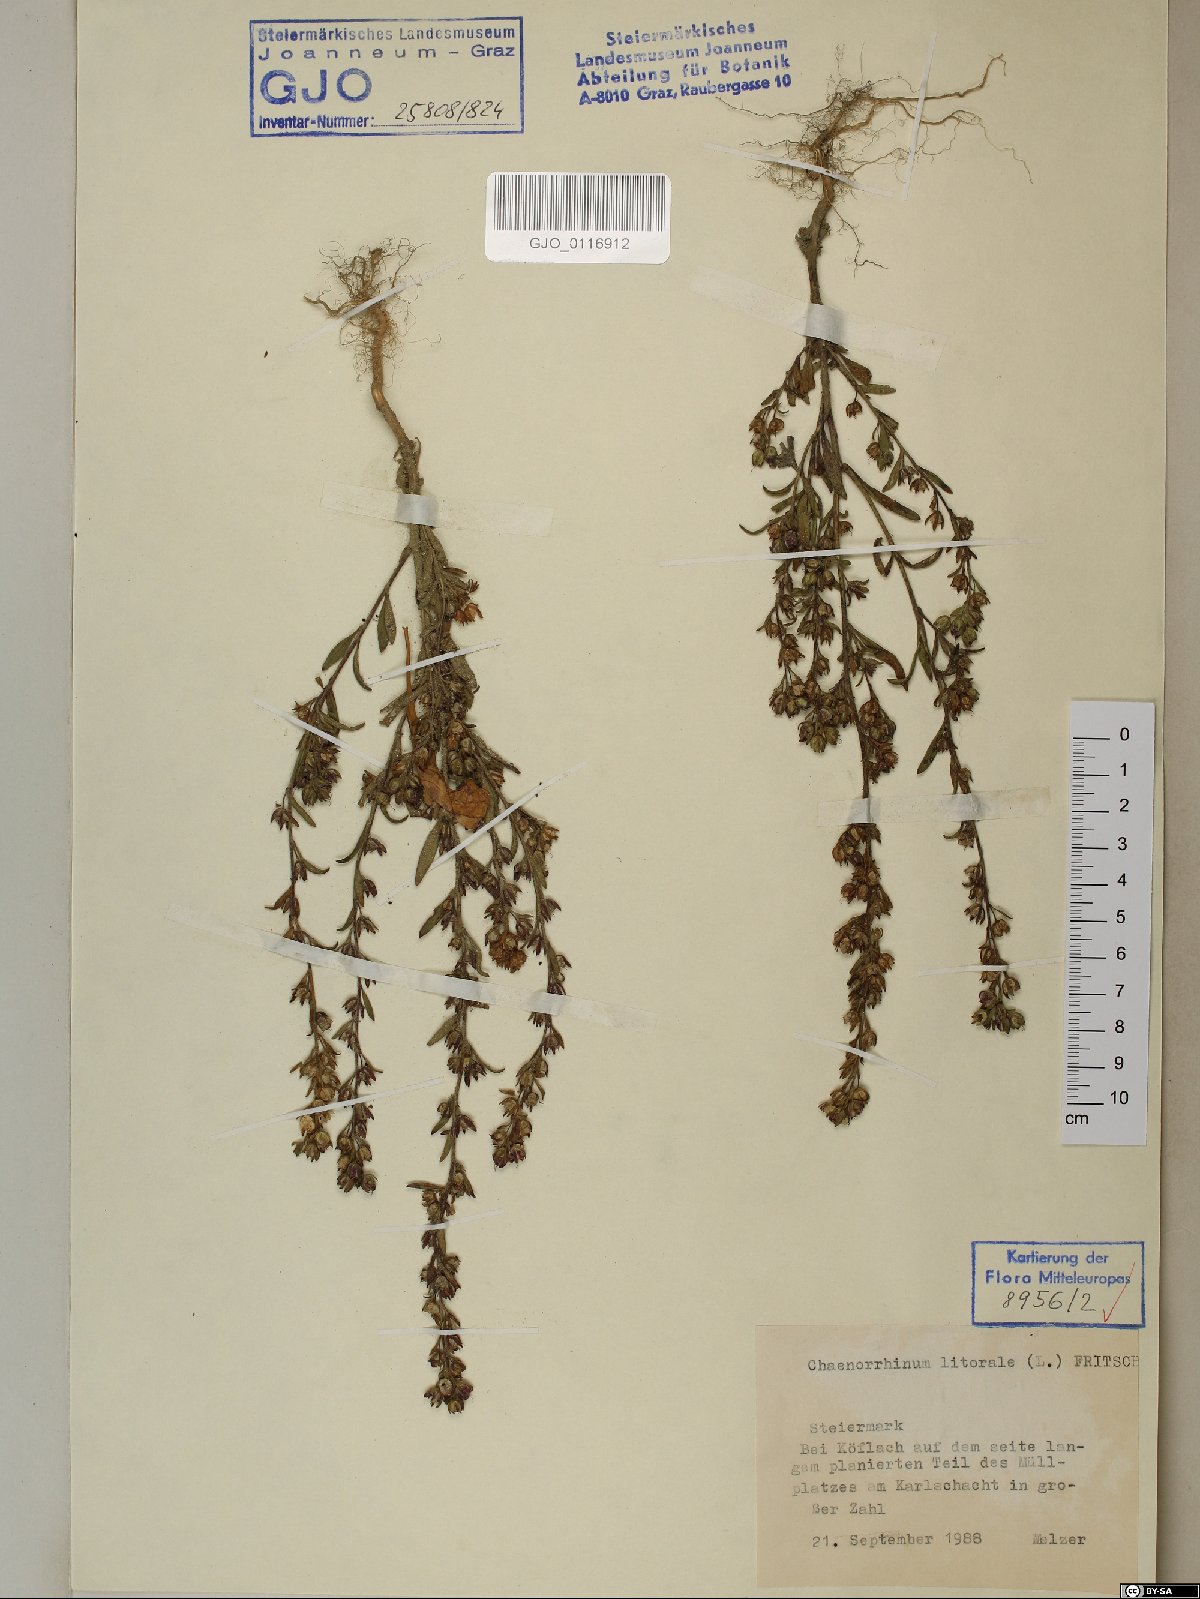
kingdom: Plantae
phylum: Tracheophyta
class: Magnoliopsida
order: Lamiales
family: Plantaginaceae
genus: Chaenorhinum
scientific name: Chaenorhinum litorale
